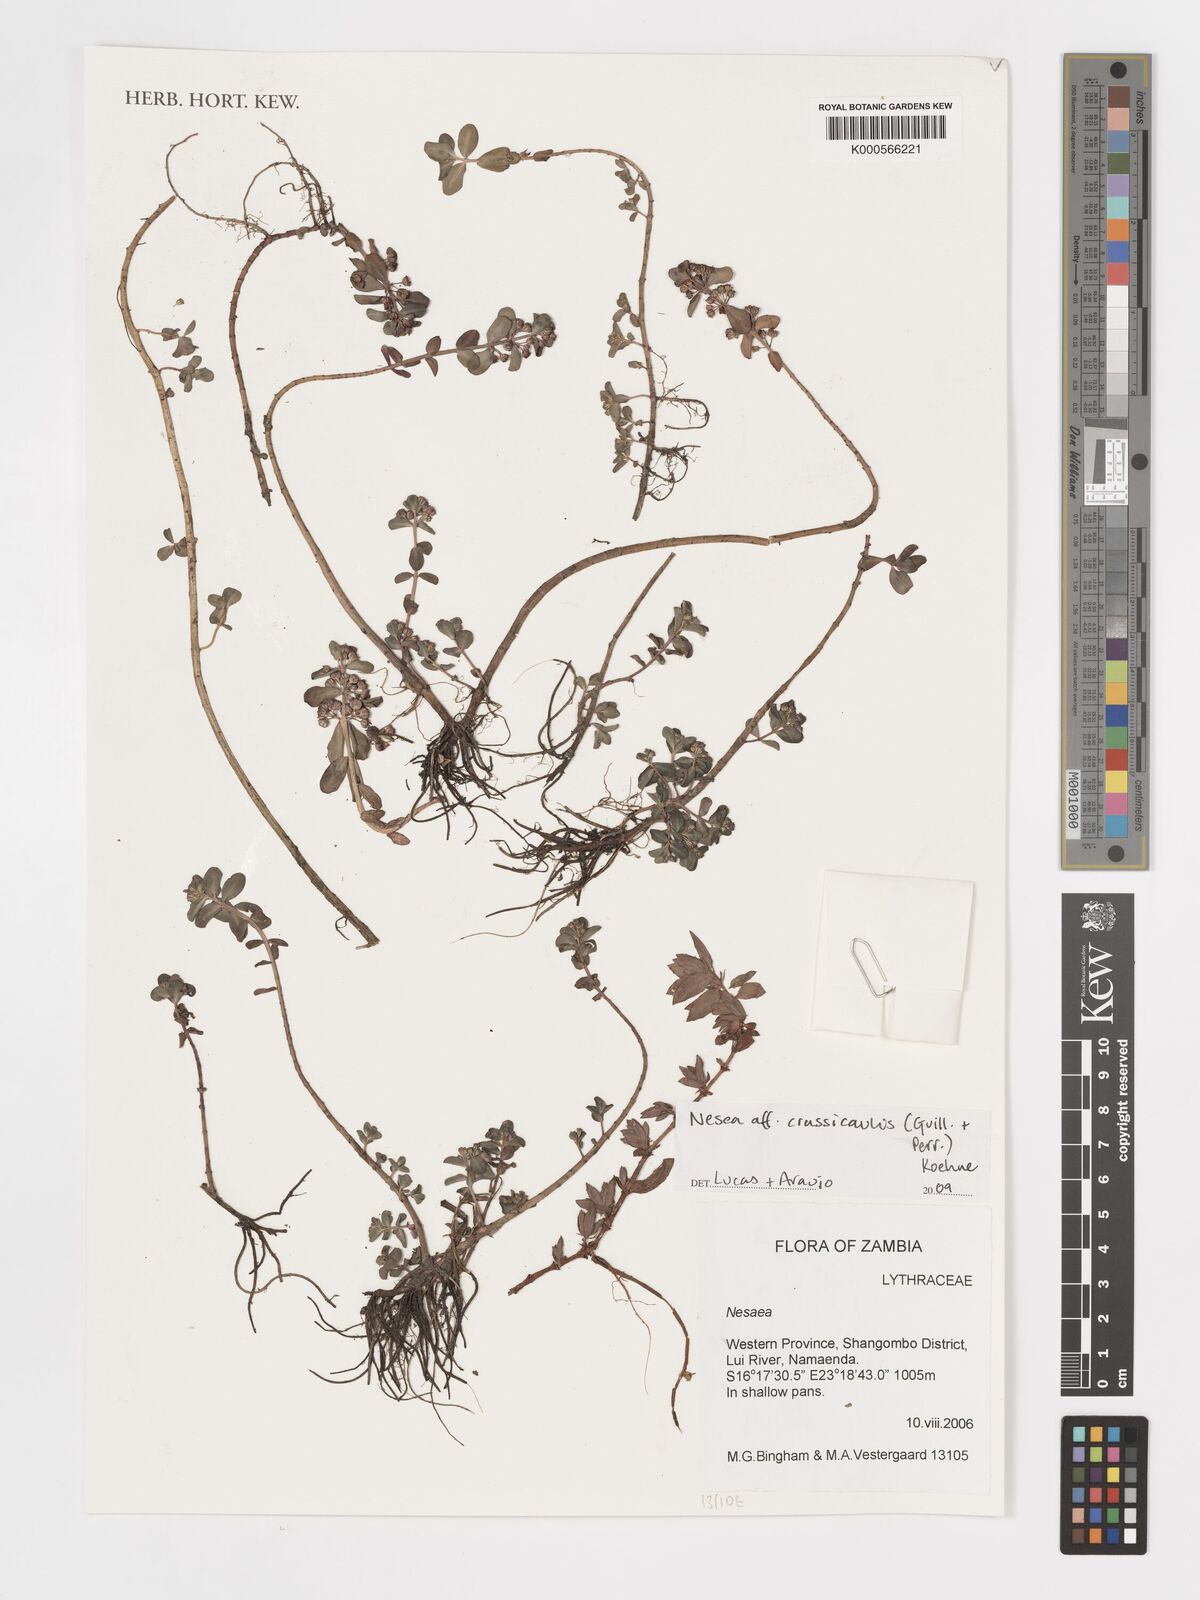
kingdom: Plantae
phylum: Tracheophyta
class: Magnoliopsida
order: Myrtales
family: Lythraceae
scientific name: Lythraceae
